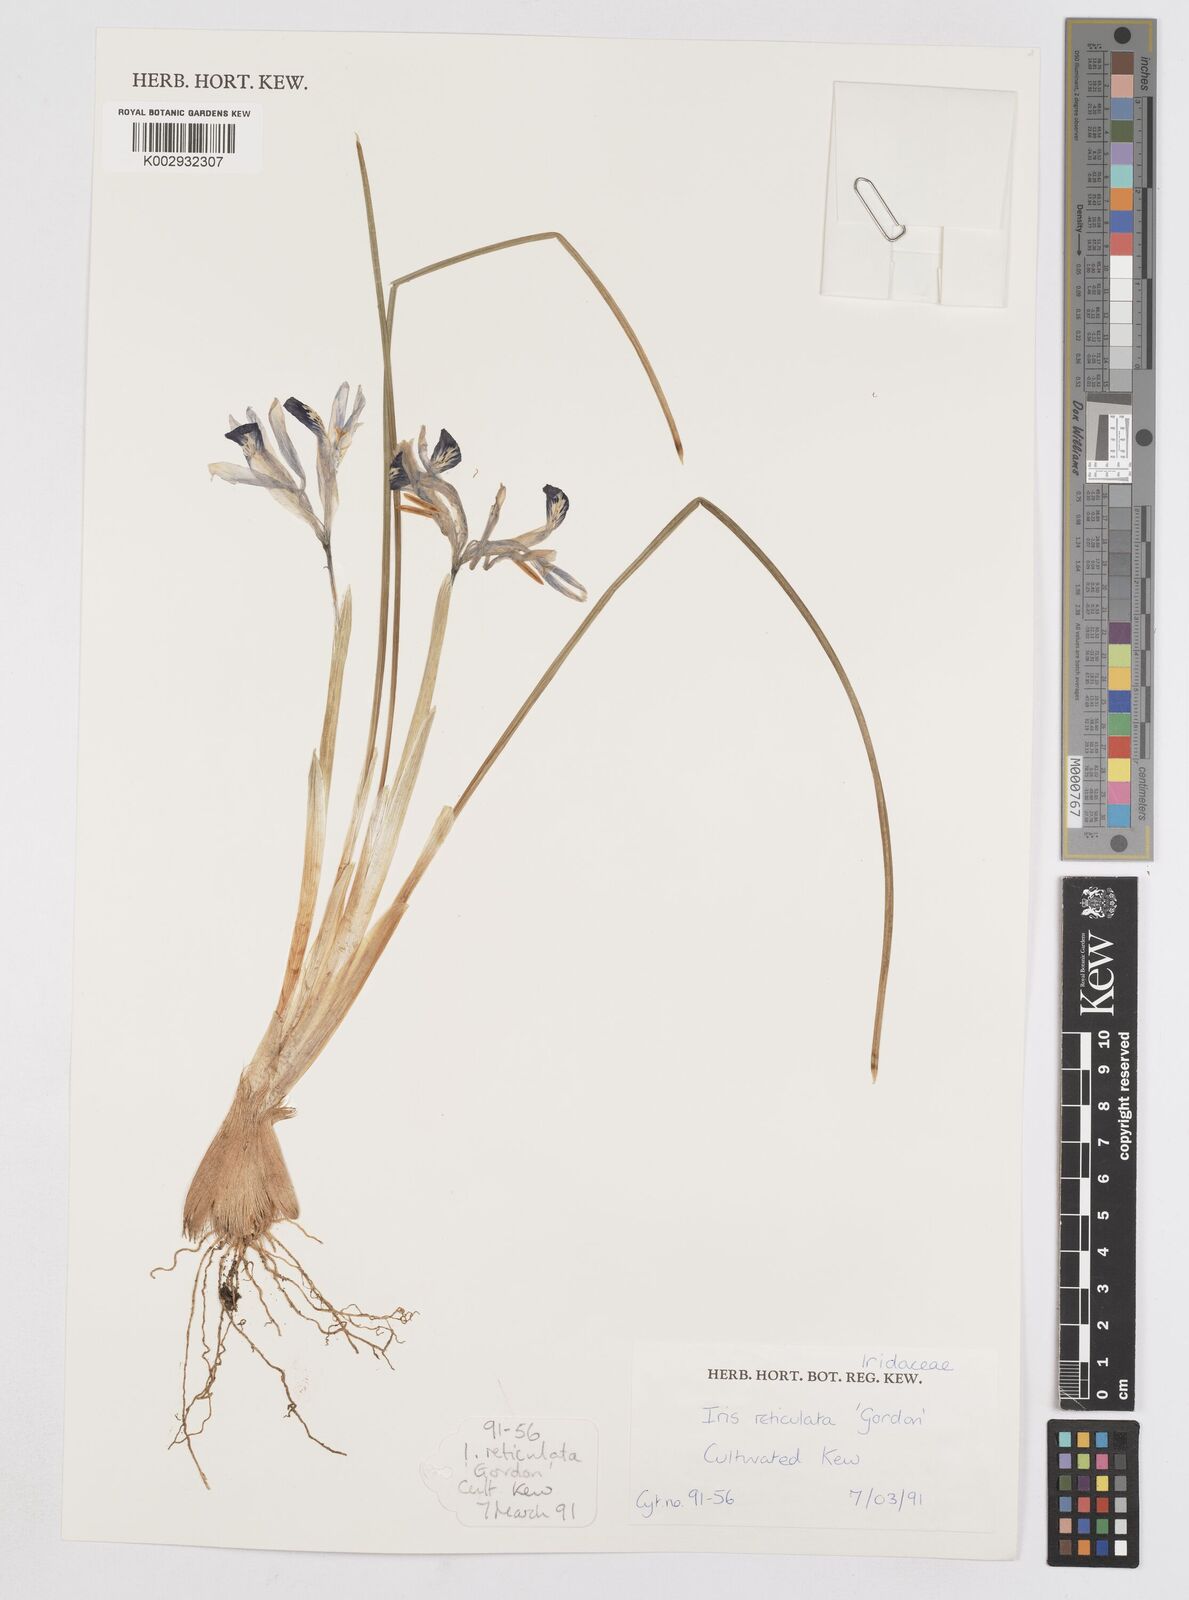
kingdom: Plantae
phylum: Tracheophyta
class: Liliopsida
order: Asparagales
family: Iridaceae
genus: Iris
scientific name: Iris reticulata
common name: Netted iris
